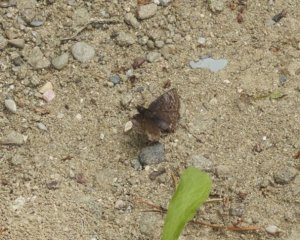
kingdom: Animalia
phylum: Arthropoda
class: Insecta
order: Lepidoptera
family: Hesperiidae
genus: Erynnis
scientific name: Erynnis icelus
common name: Dreamy Duskywing
